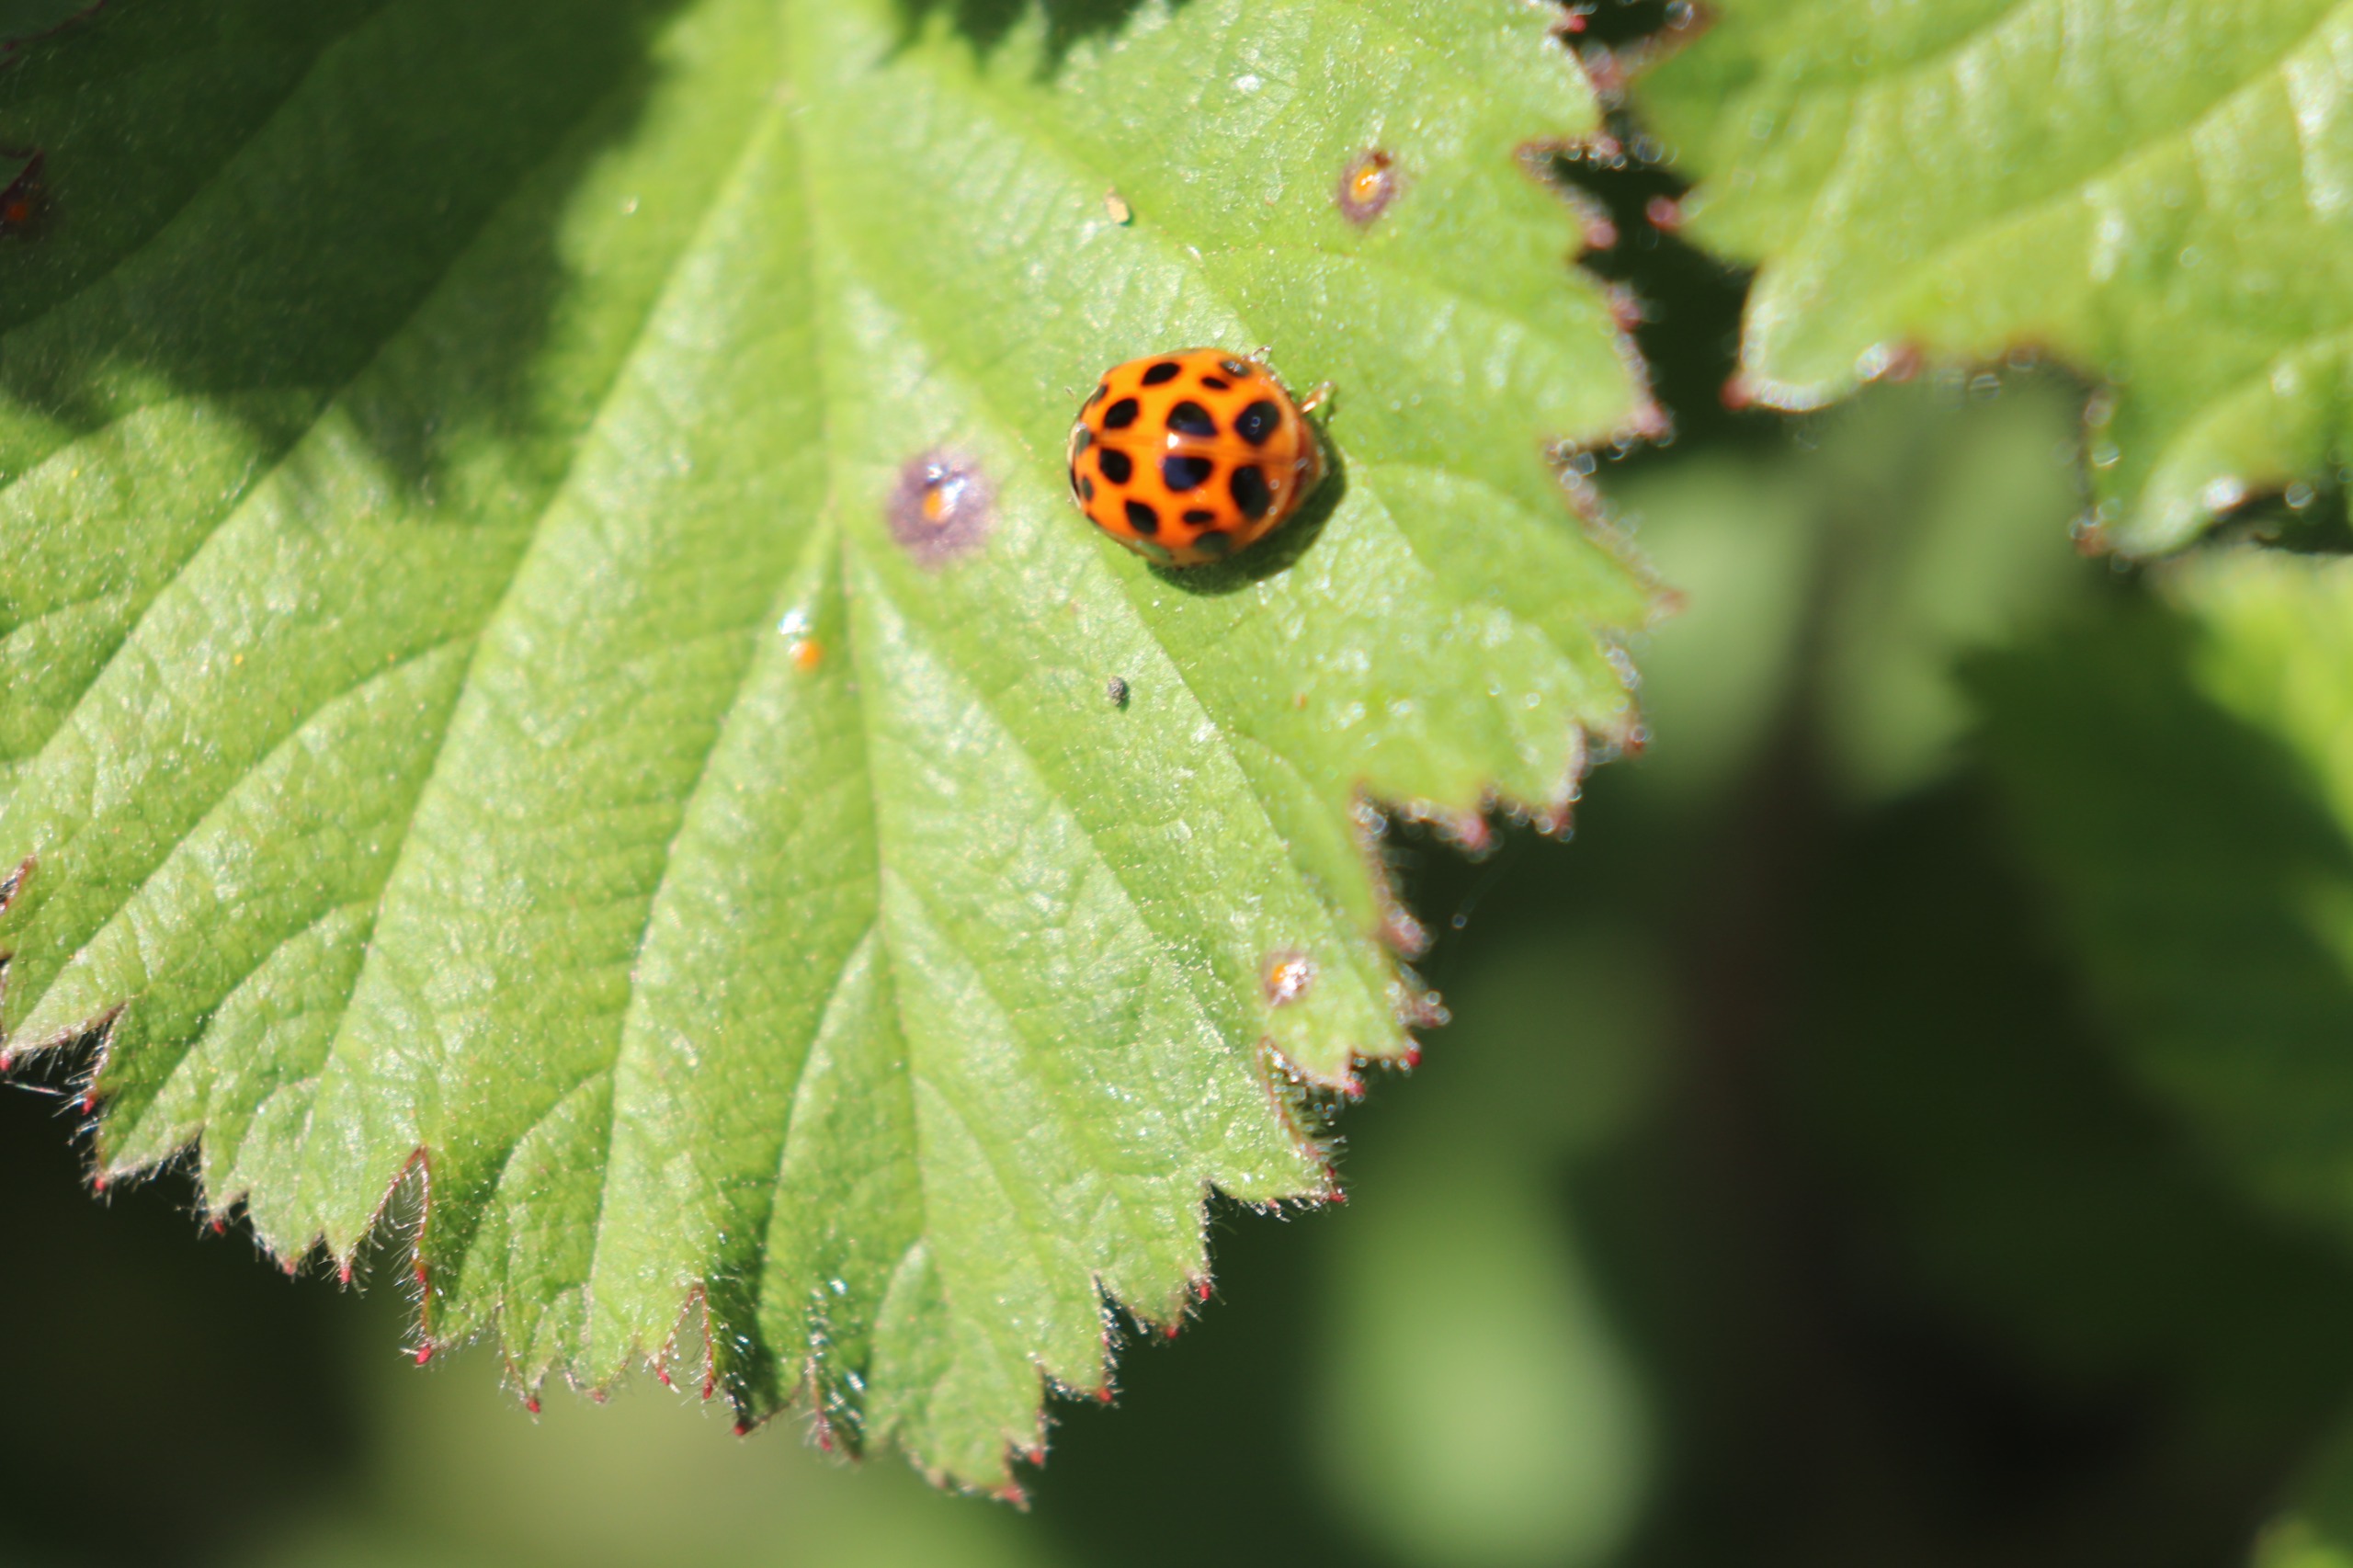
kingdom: Animalia
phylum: Arthropoda
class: Insecta
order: Coleoptera
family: Coccinellidae
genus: Harmonia
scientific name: Harmonia axyridis
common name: Harlekinmariehøne
